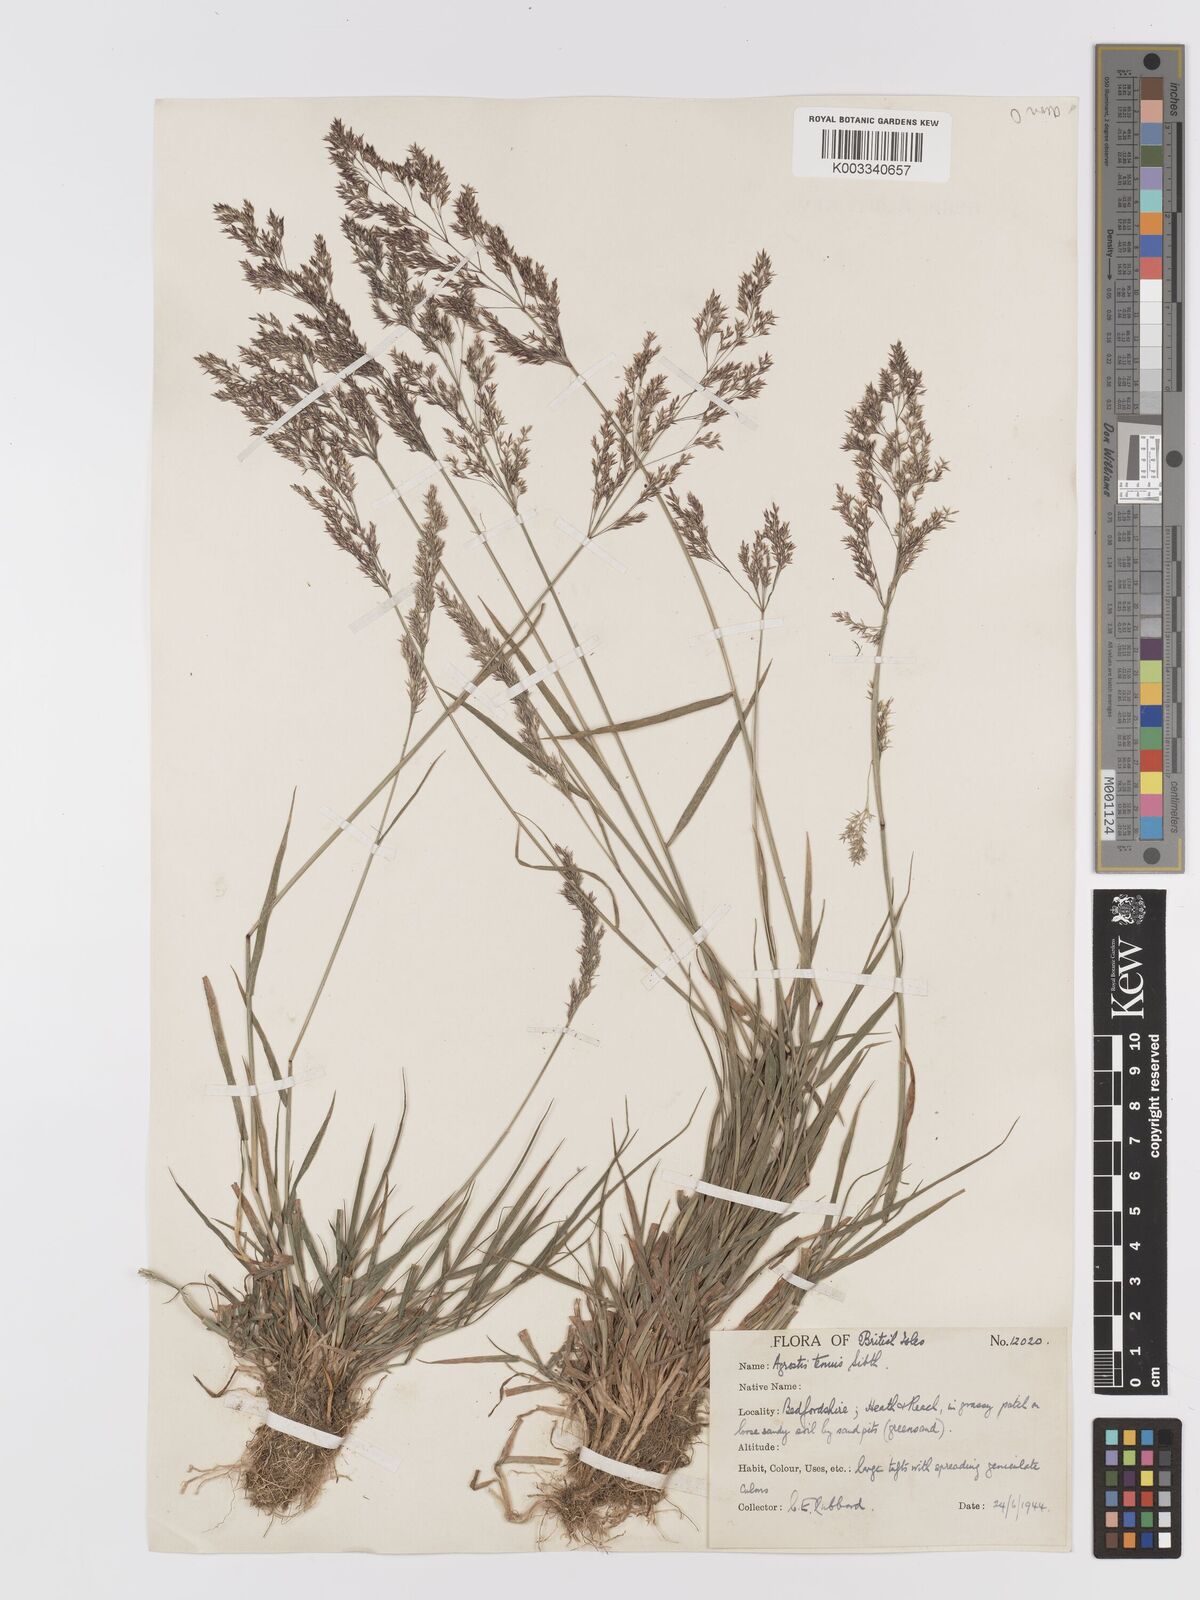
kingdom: Plantae
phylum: Tracheophyta
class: Liliopsida
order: Poales
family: Poaceae
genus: Agrostis
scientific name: Agrostis capillaris
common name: Colonial bentgrass
